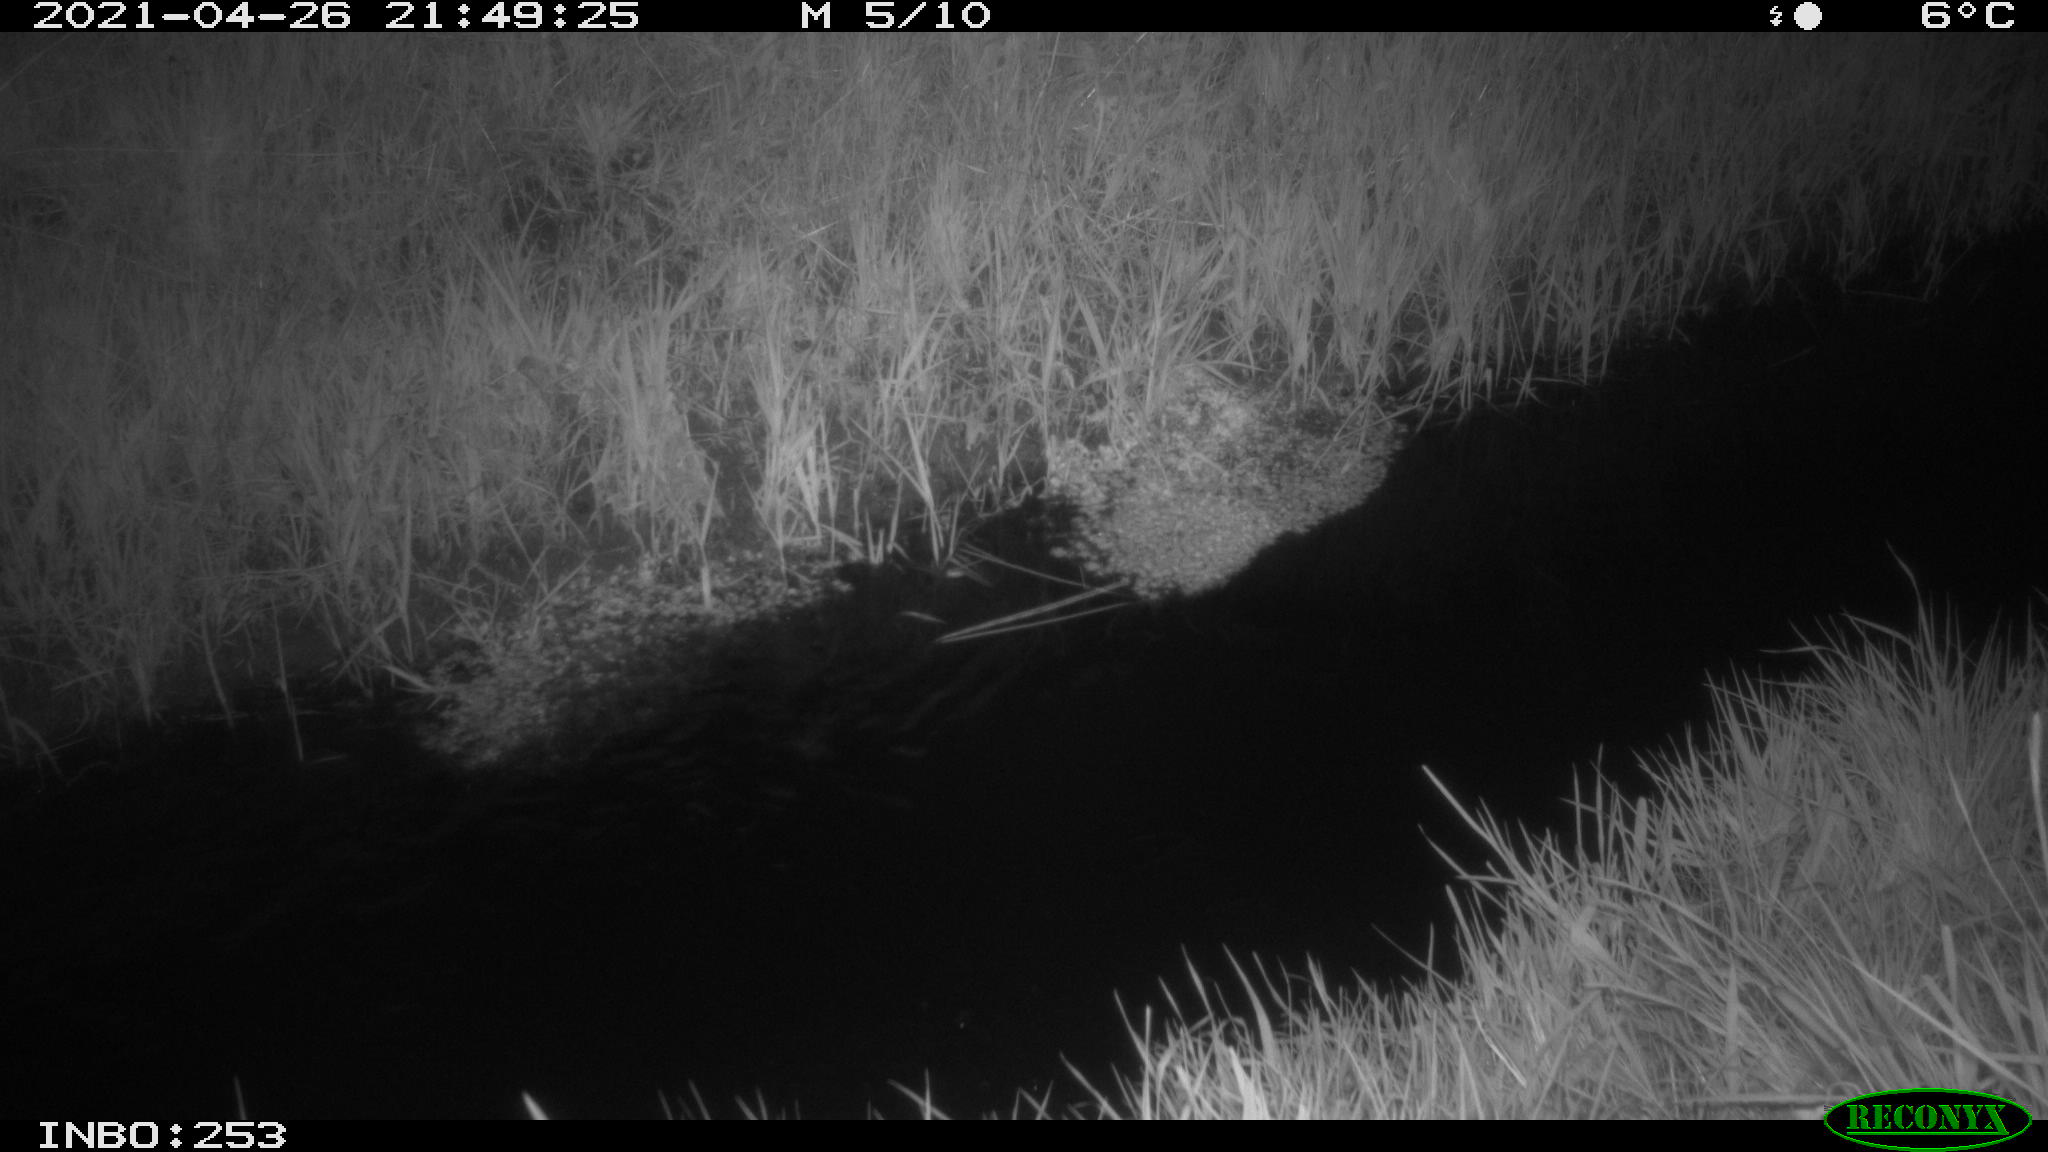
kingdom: Animalia
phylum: Chordata
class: Aves
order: Anseriformes
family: Anatidae
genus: Anas
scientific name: Anas platyrhynchos
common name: Mallard
